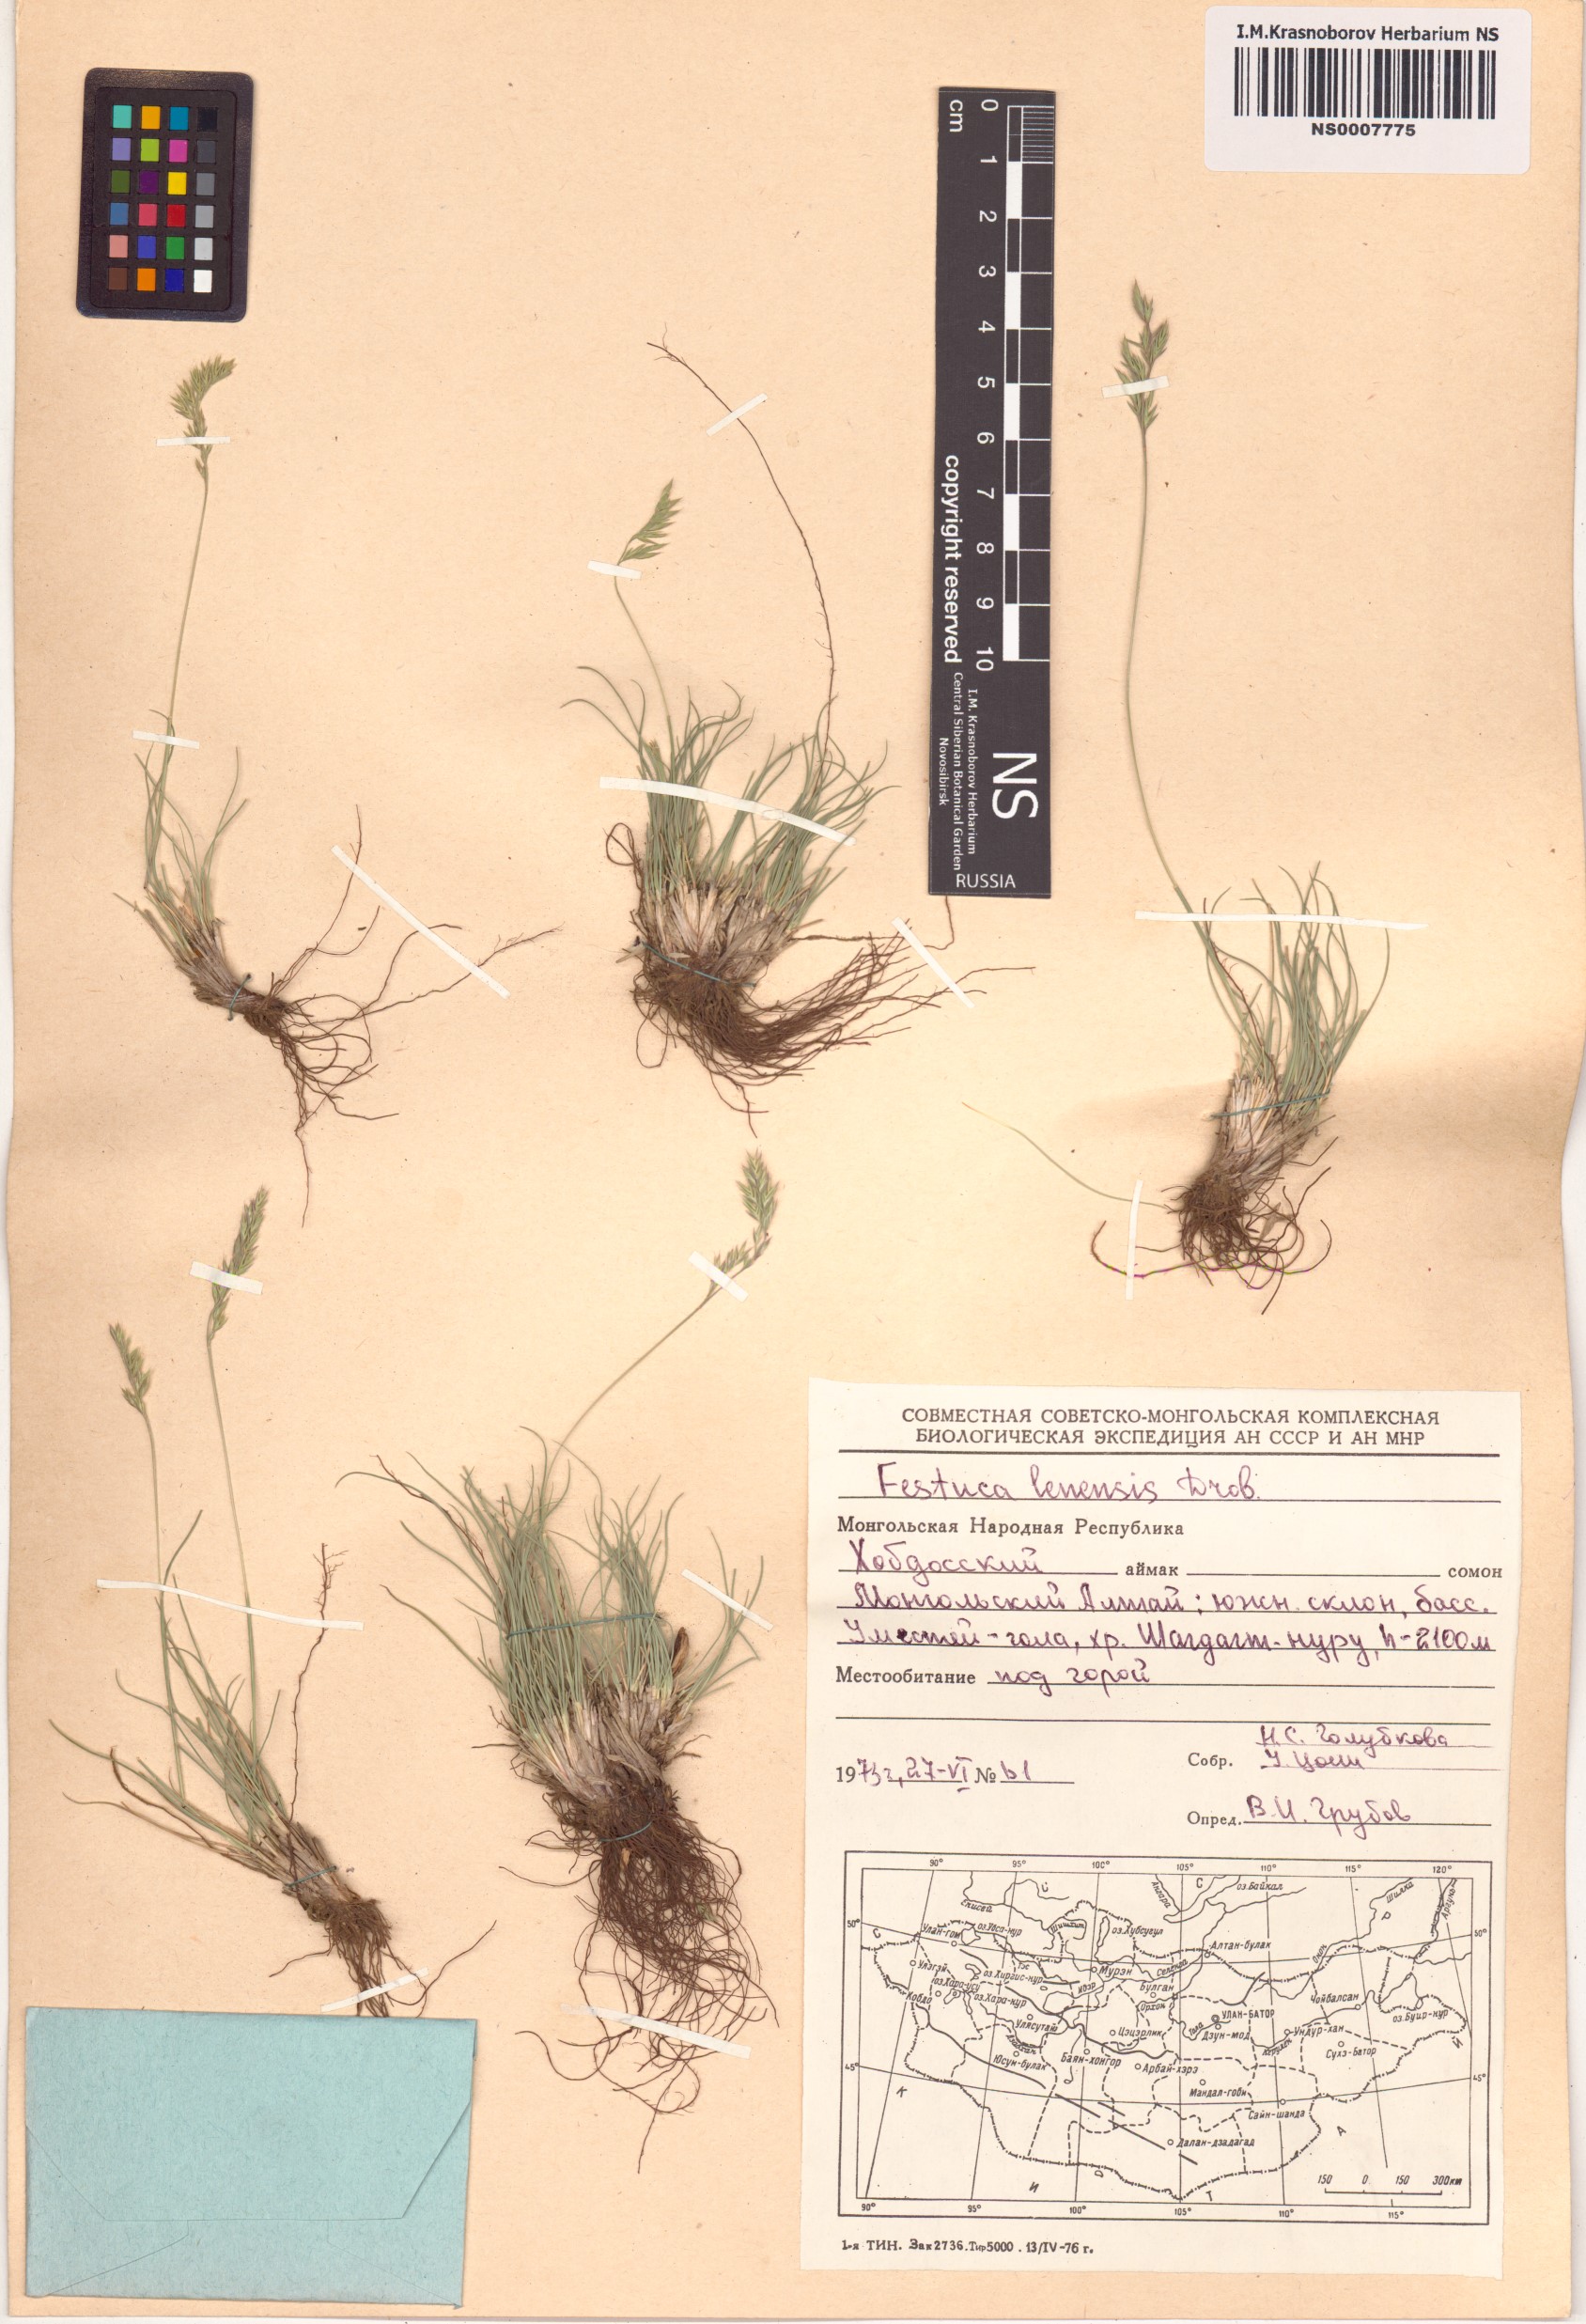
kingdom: Plantae
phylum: Tracheophyta
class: Liliopsida
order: Poales
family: Poaceae
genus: Festuca
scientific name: Festuca lenensis
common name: Lena river fescue
